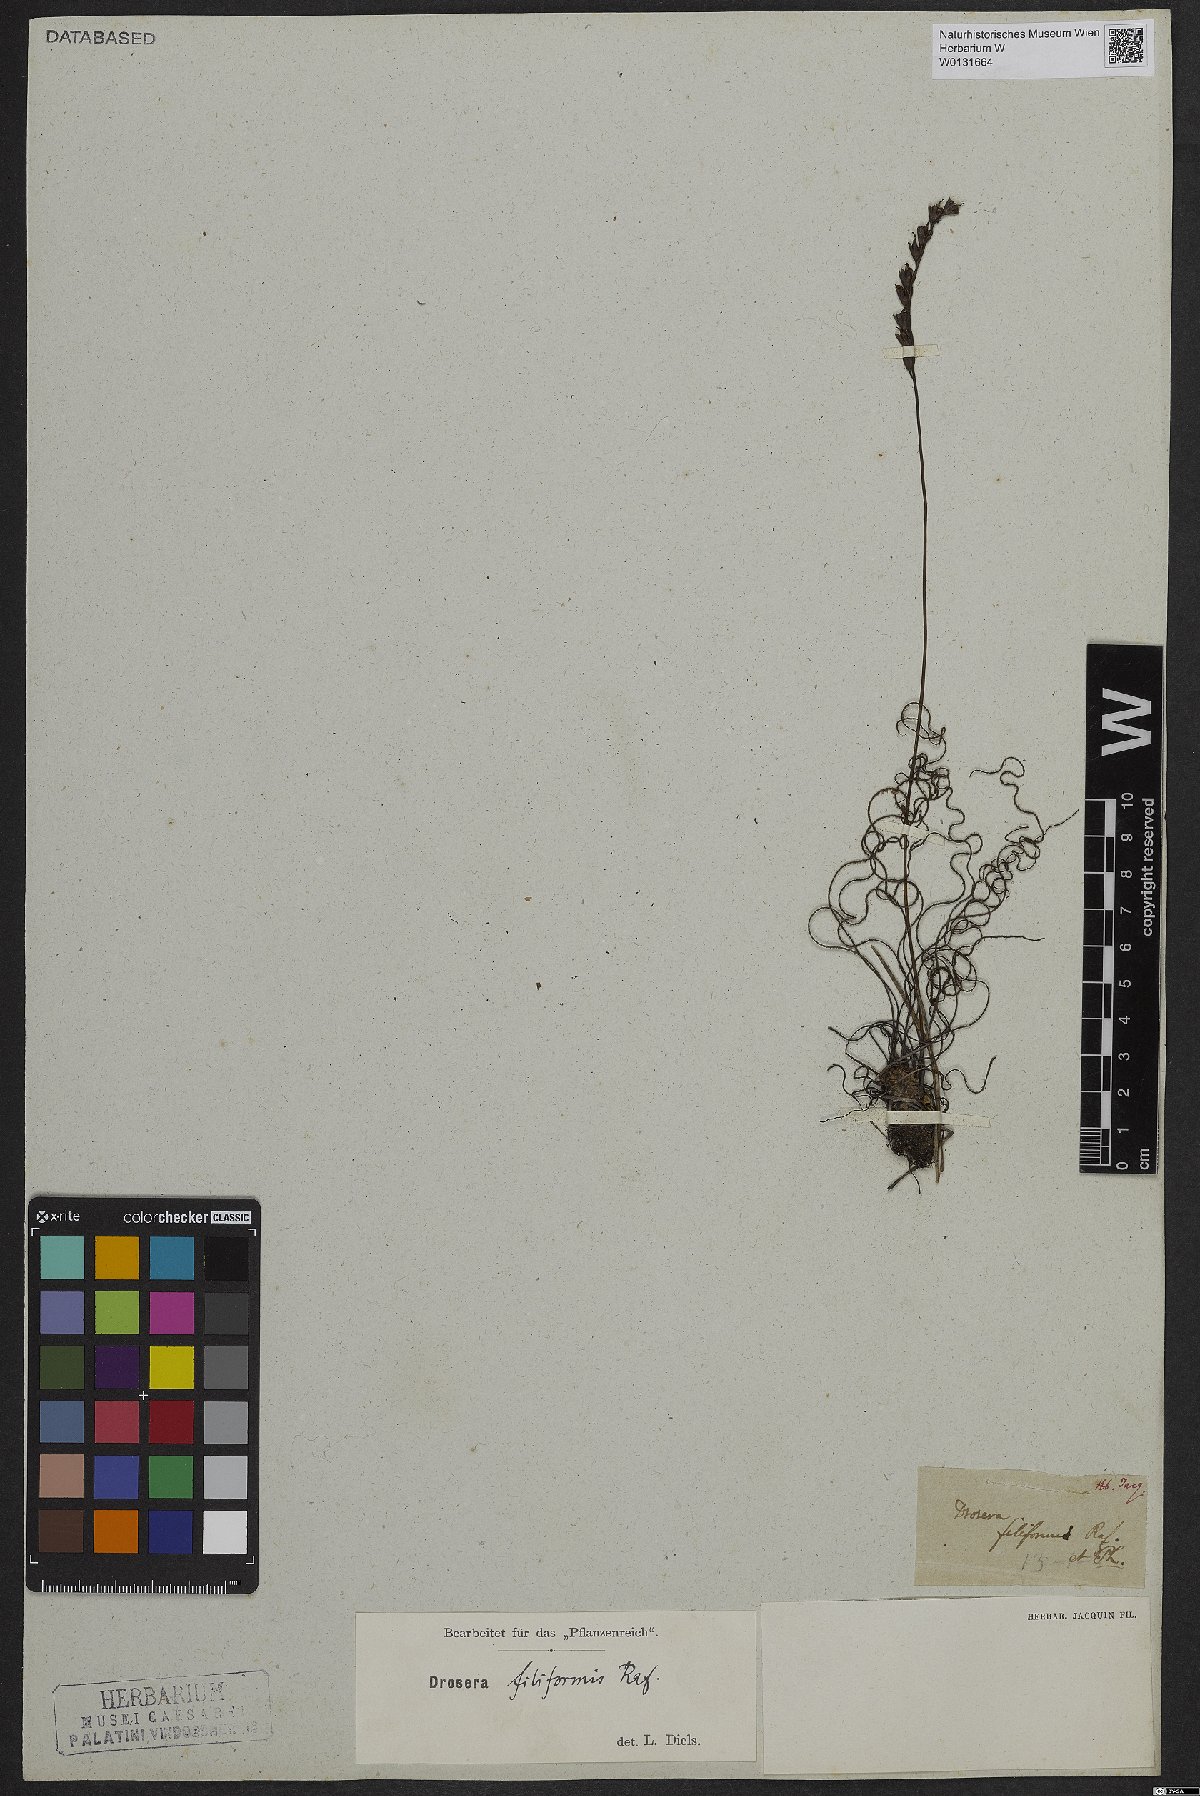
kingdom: Plantae
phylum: Tracheophyta
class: Magnoliopsida
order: Caryophyllales
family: Droseraceae
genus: Drosera
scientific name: Drosera filiformis
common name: Dew-thread
